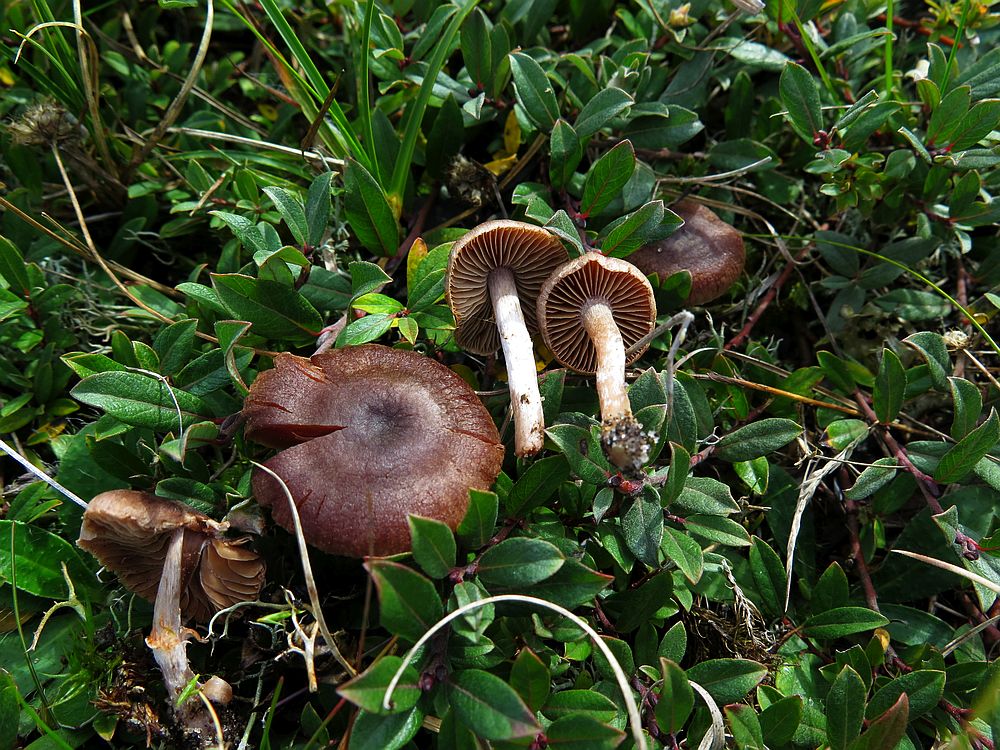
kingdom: Fungi
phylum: Basidiomycota
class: Agaricomycetes
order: Agaricales
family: Cortinariaceae
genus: Cortinarius
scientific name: Cortinarius decipiens
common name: mørkpuklet slørhat
